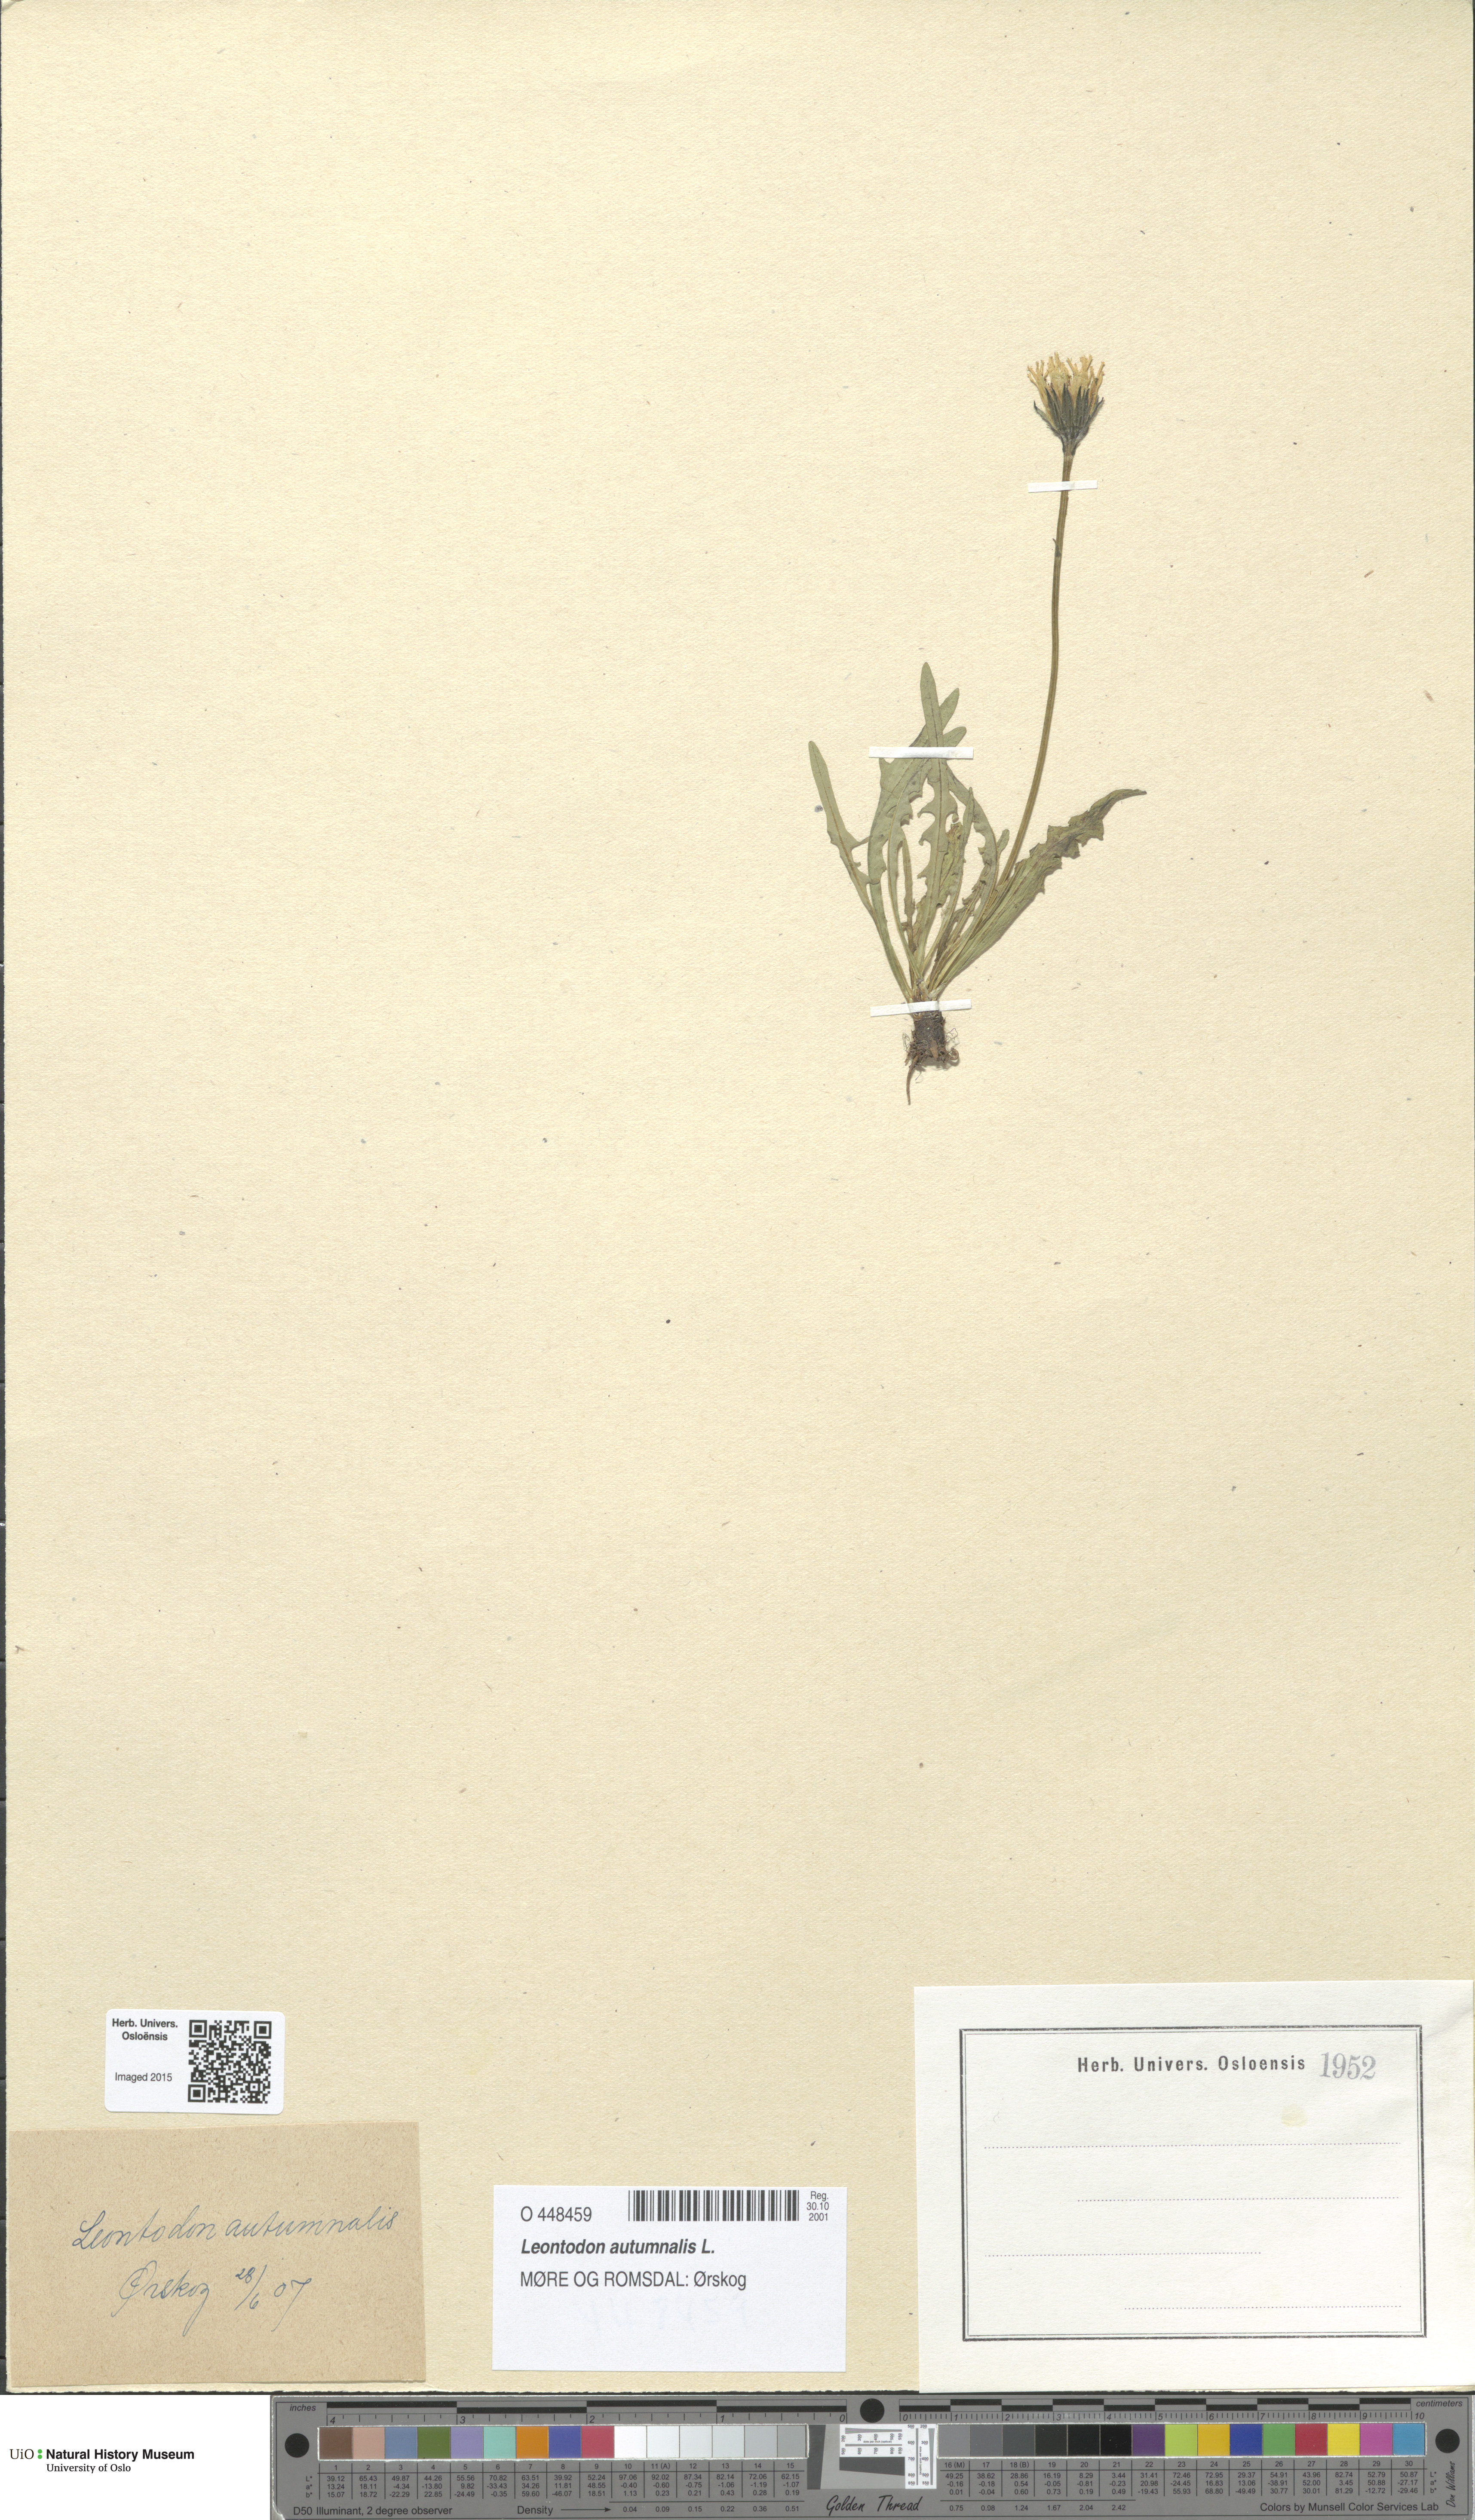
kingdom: Plantae
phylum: Tracheophyta
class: Magnoliopsida
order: Asterales
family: Asteraceae
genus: Scorzoneroides
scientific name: Scorzoneroides autumnalis
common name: Autumn hawkbit
